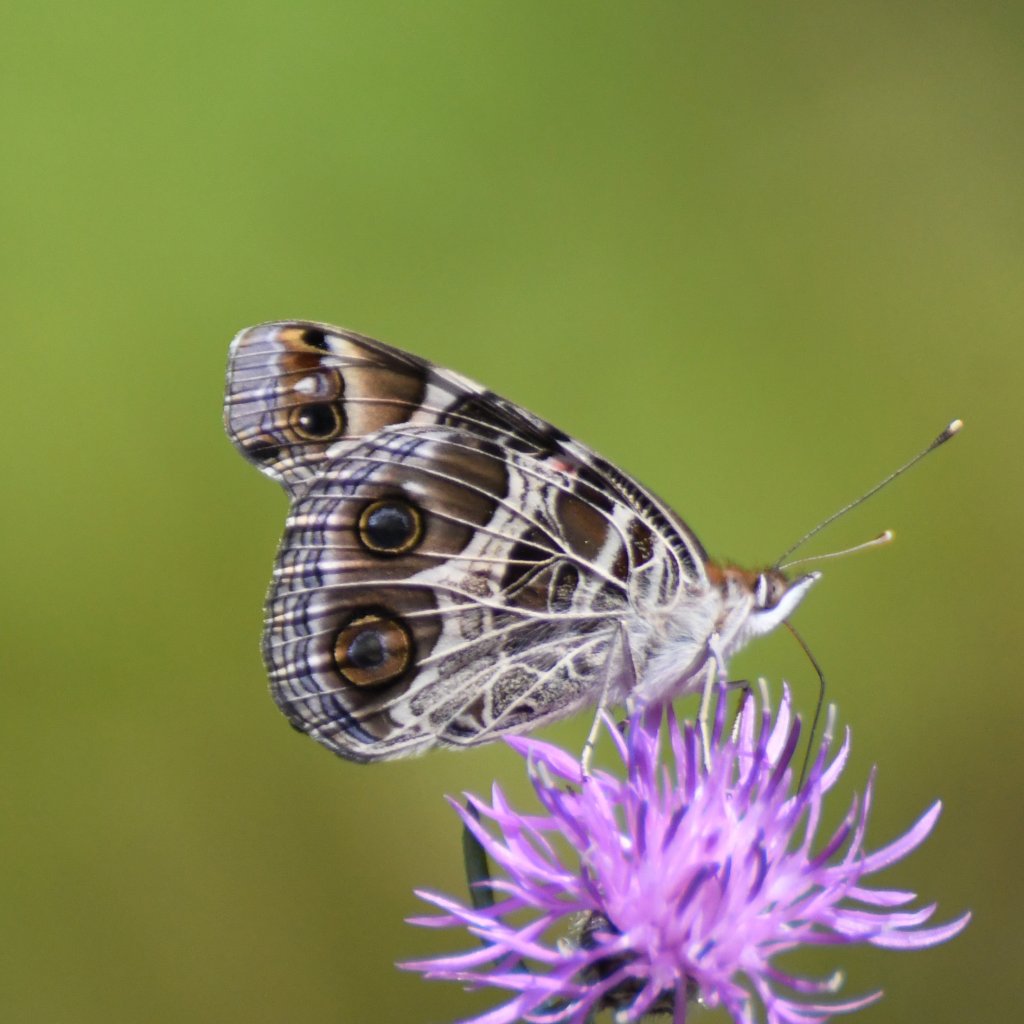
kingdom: Animalia
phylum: Arthropoda
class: Insecta
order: Lepidoptera
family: Nymphalidae
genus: Vanessa
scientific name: Vanessa virginiensis
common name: American Lady
